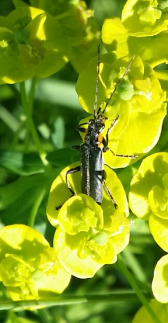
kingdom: Animalia
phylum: Arthropoda
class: Insecta
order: Coleoptera
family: Cantharidae
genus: Cantharis
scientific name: Cantharis obscura
